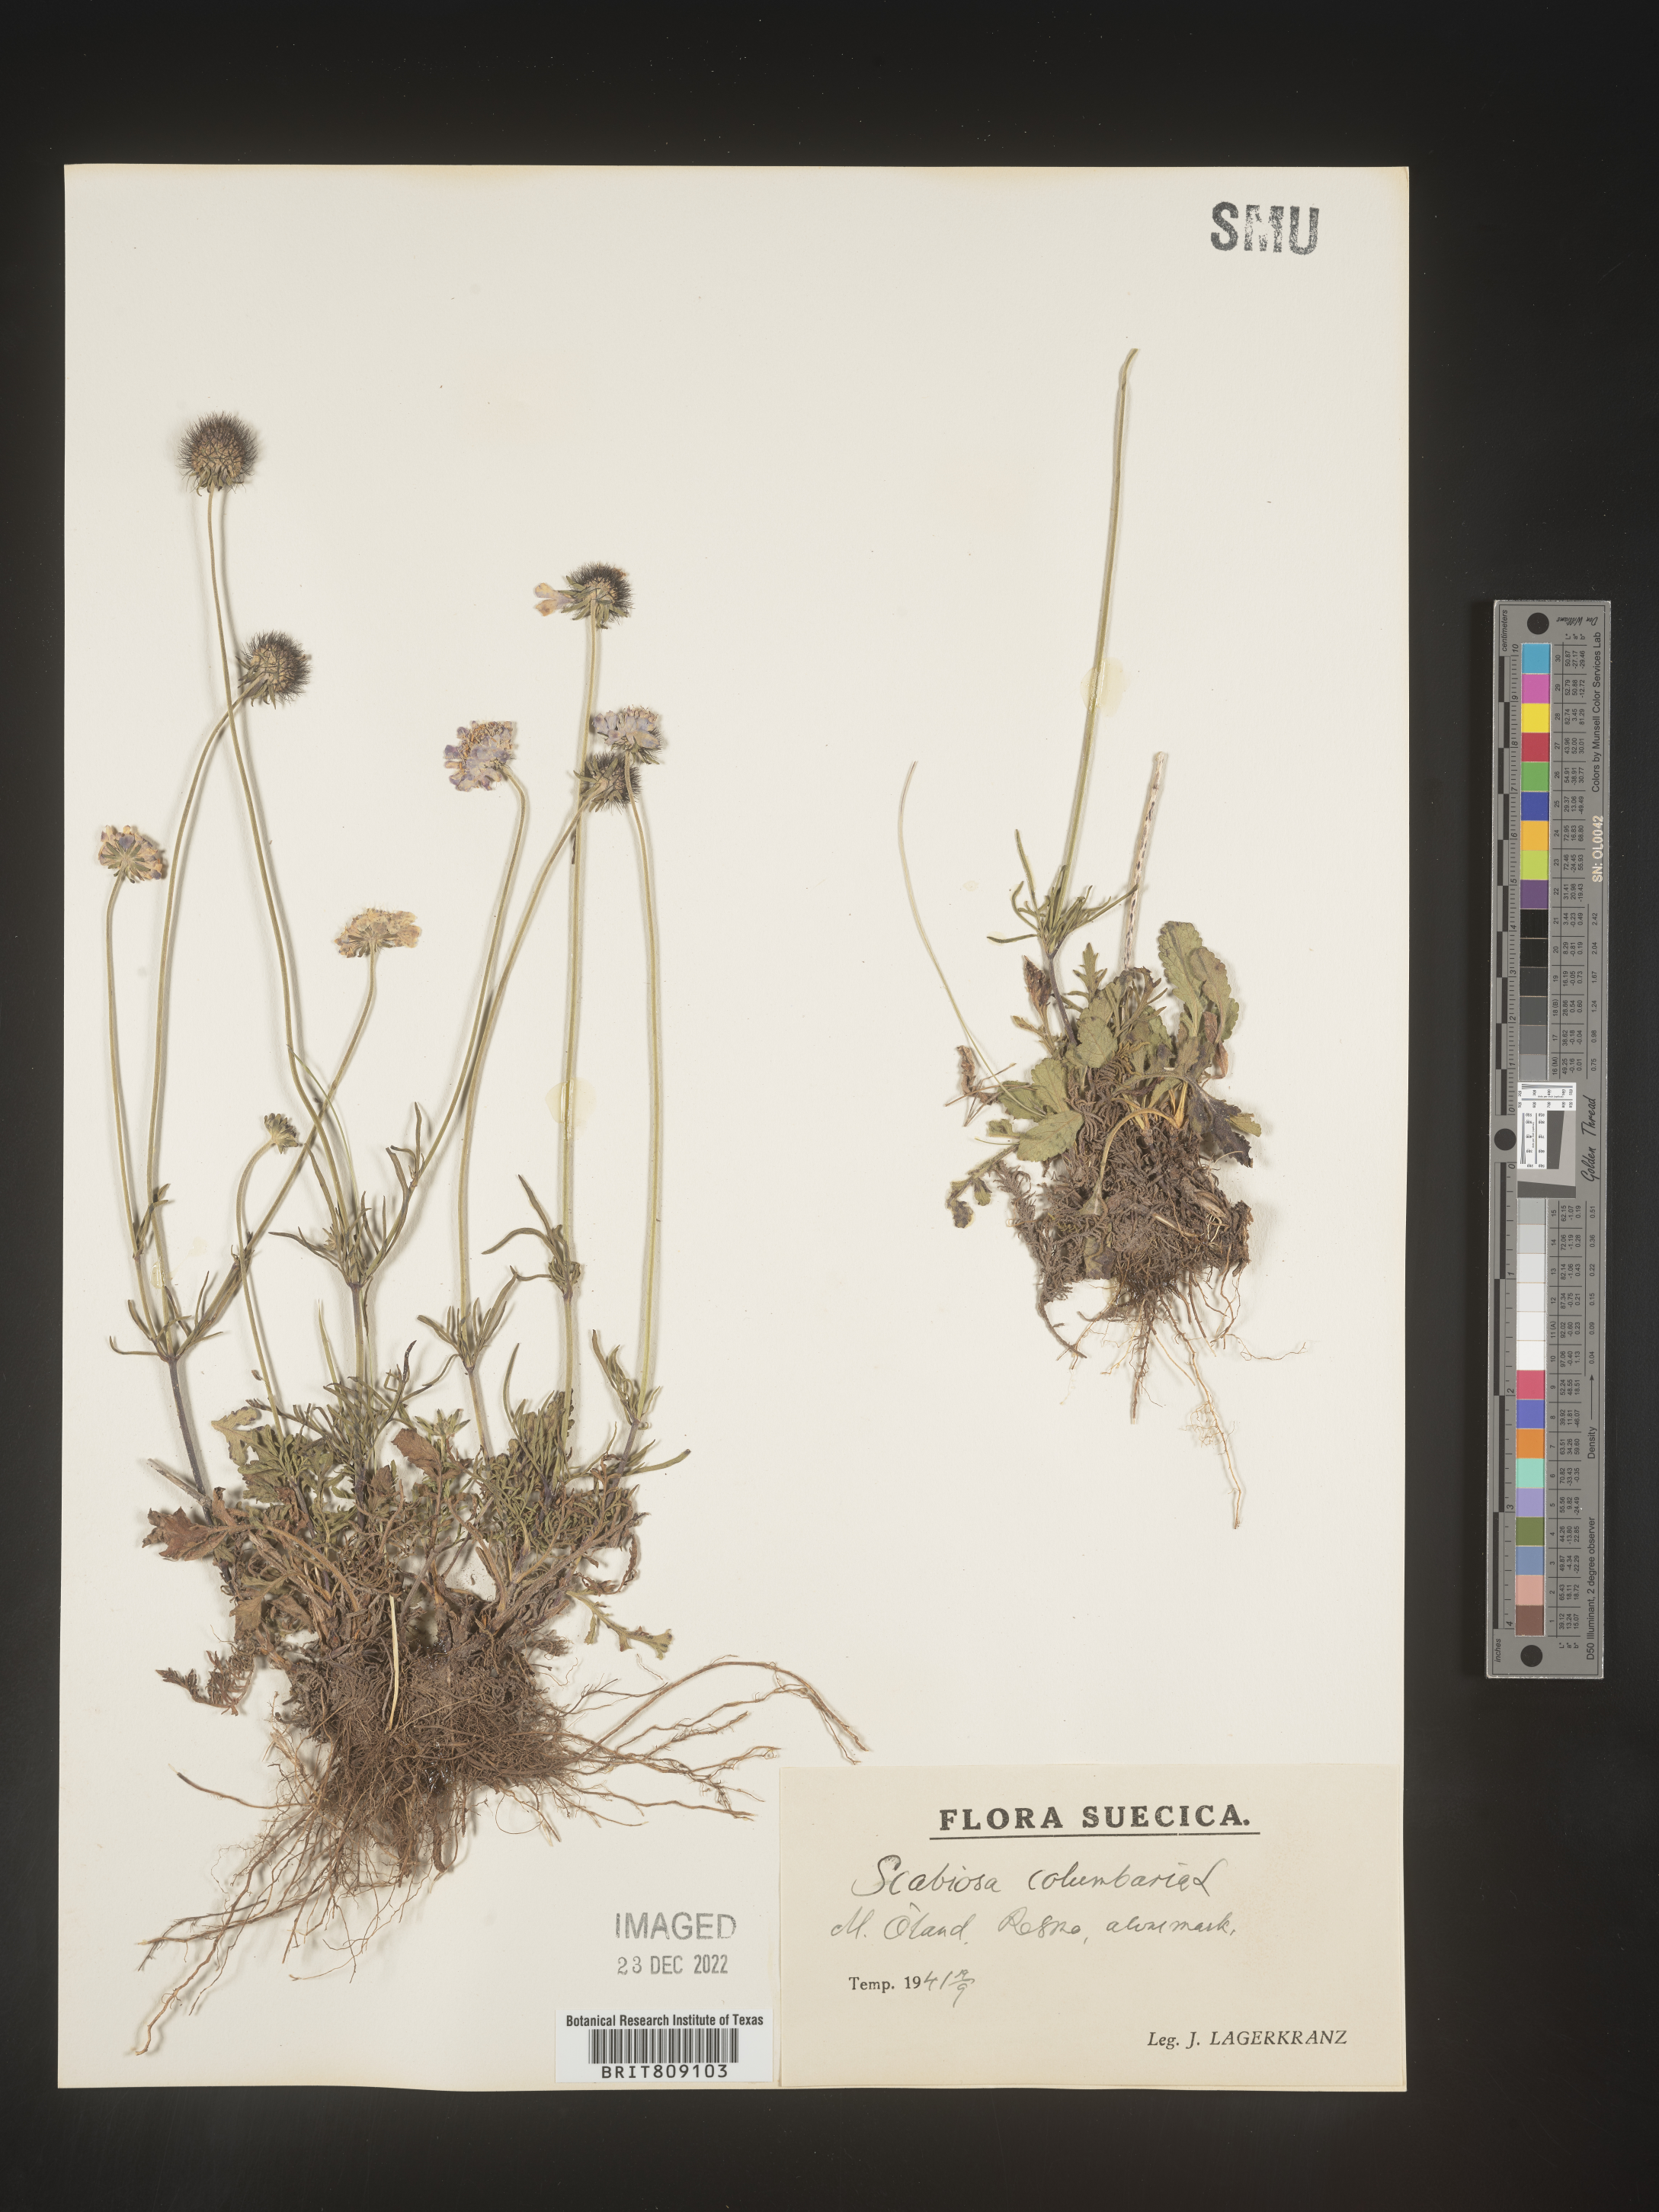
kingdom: Plantae
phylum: Tracheophyta
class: Magnoliopsida
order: Dipsacales
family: Caprifoliaceae
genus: Scabiosa
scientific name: Scabiosa
